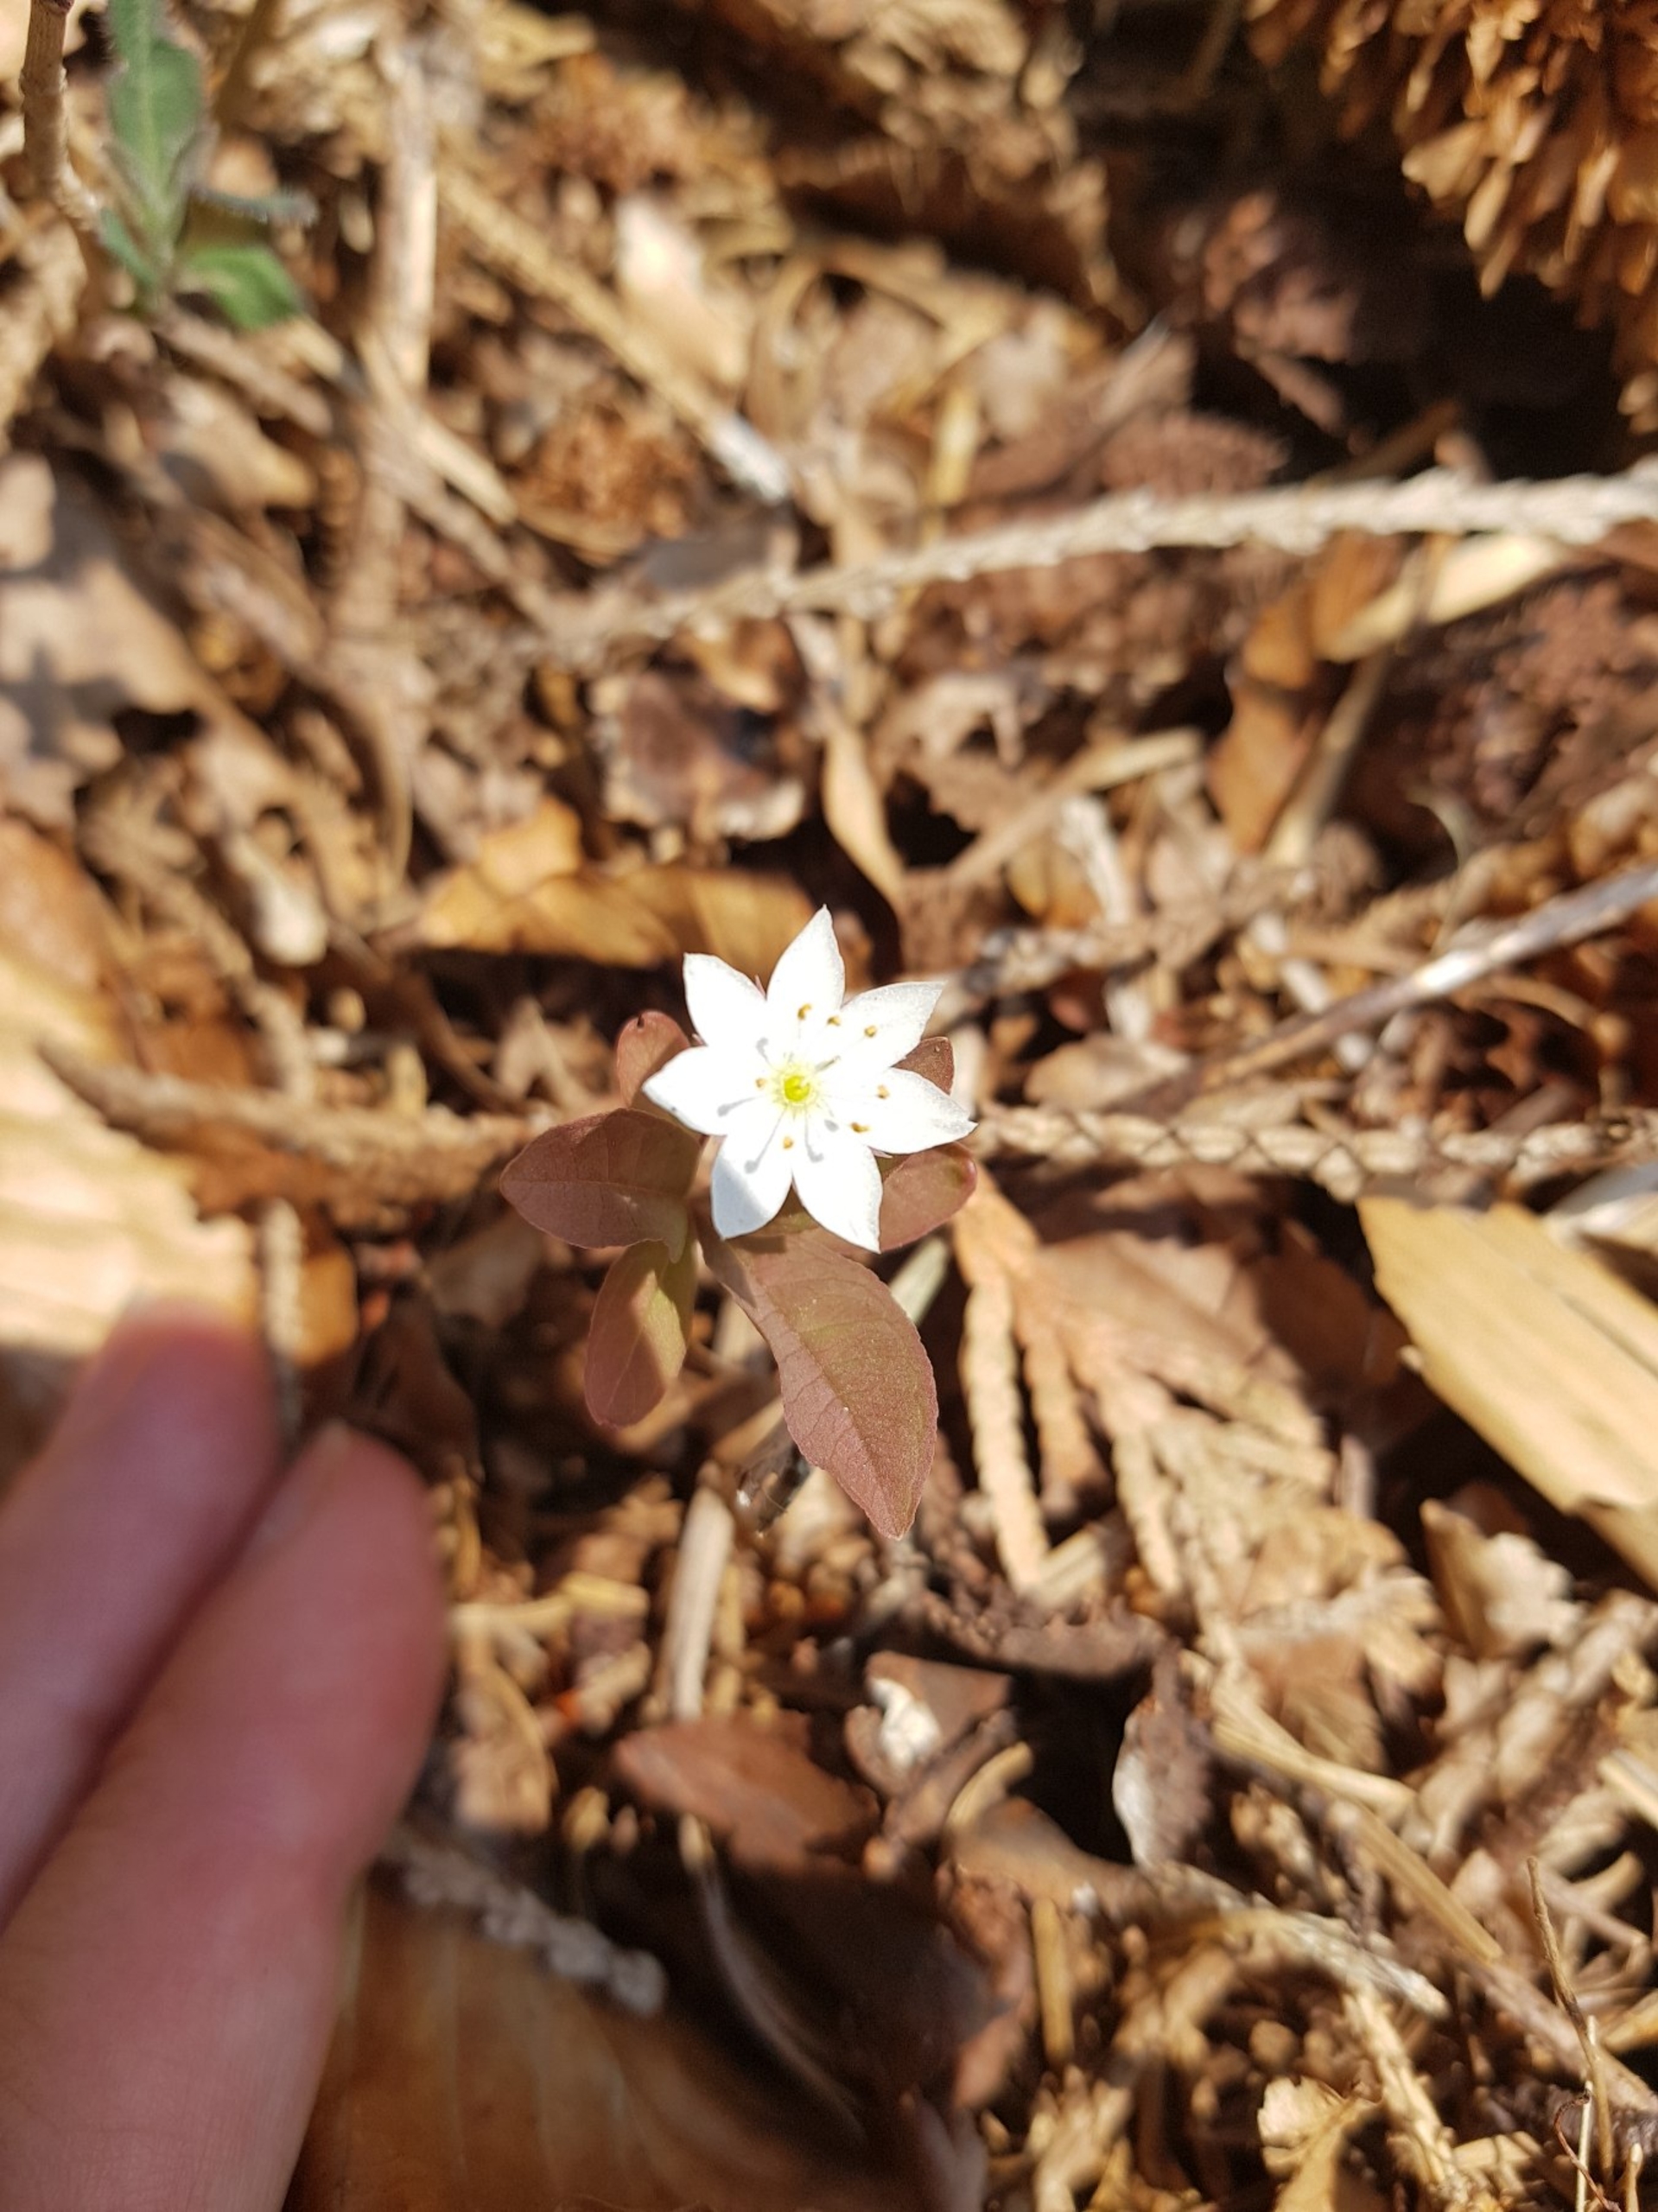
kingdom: Plantae
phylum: Tracheophyta
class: Magnoliopsida
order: Ericales
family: Primulaceae
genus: Lysimachia
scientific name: Lysimachia europaea
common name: Skovstjerne
